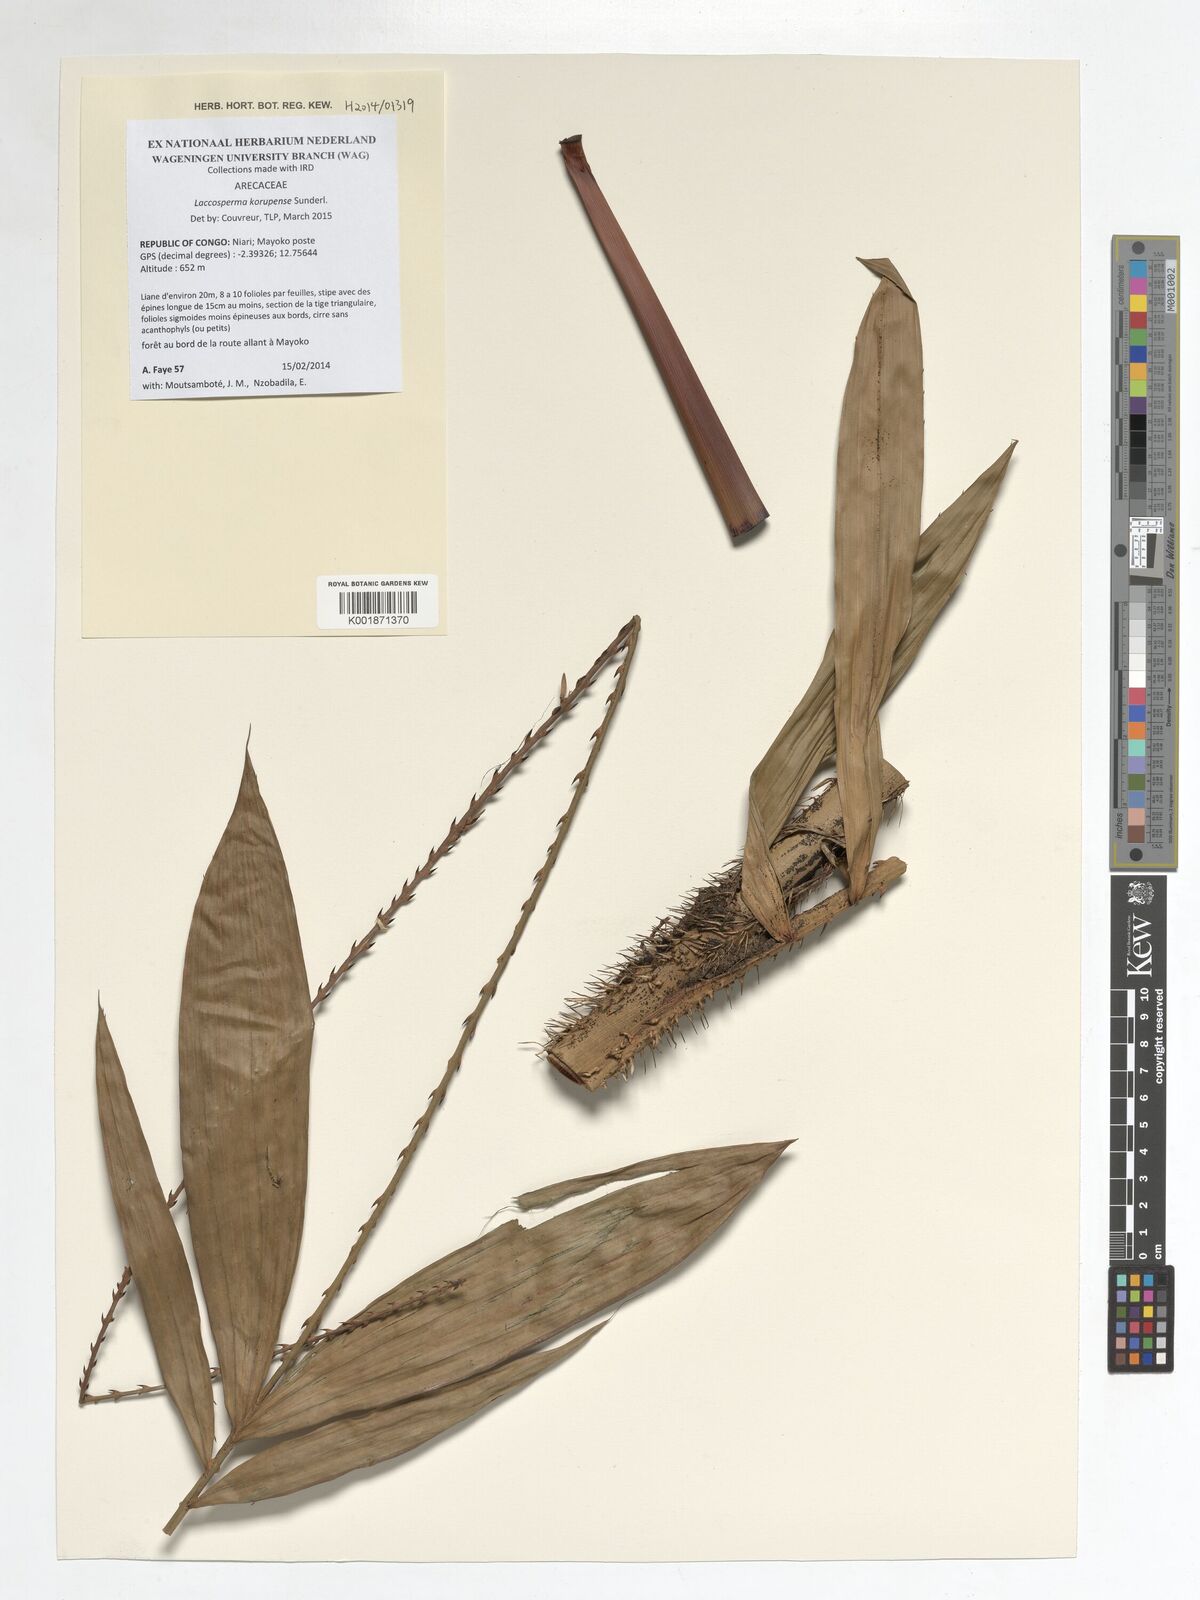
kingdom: Plantae
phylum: Tracheophyta
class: Liliopsida
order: Arecales
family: Arecaceae
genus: Laccosperma
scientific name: Laccosperma korupense
